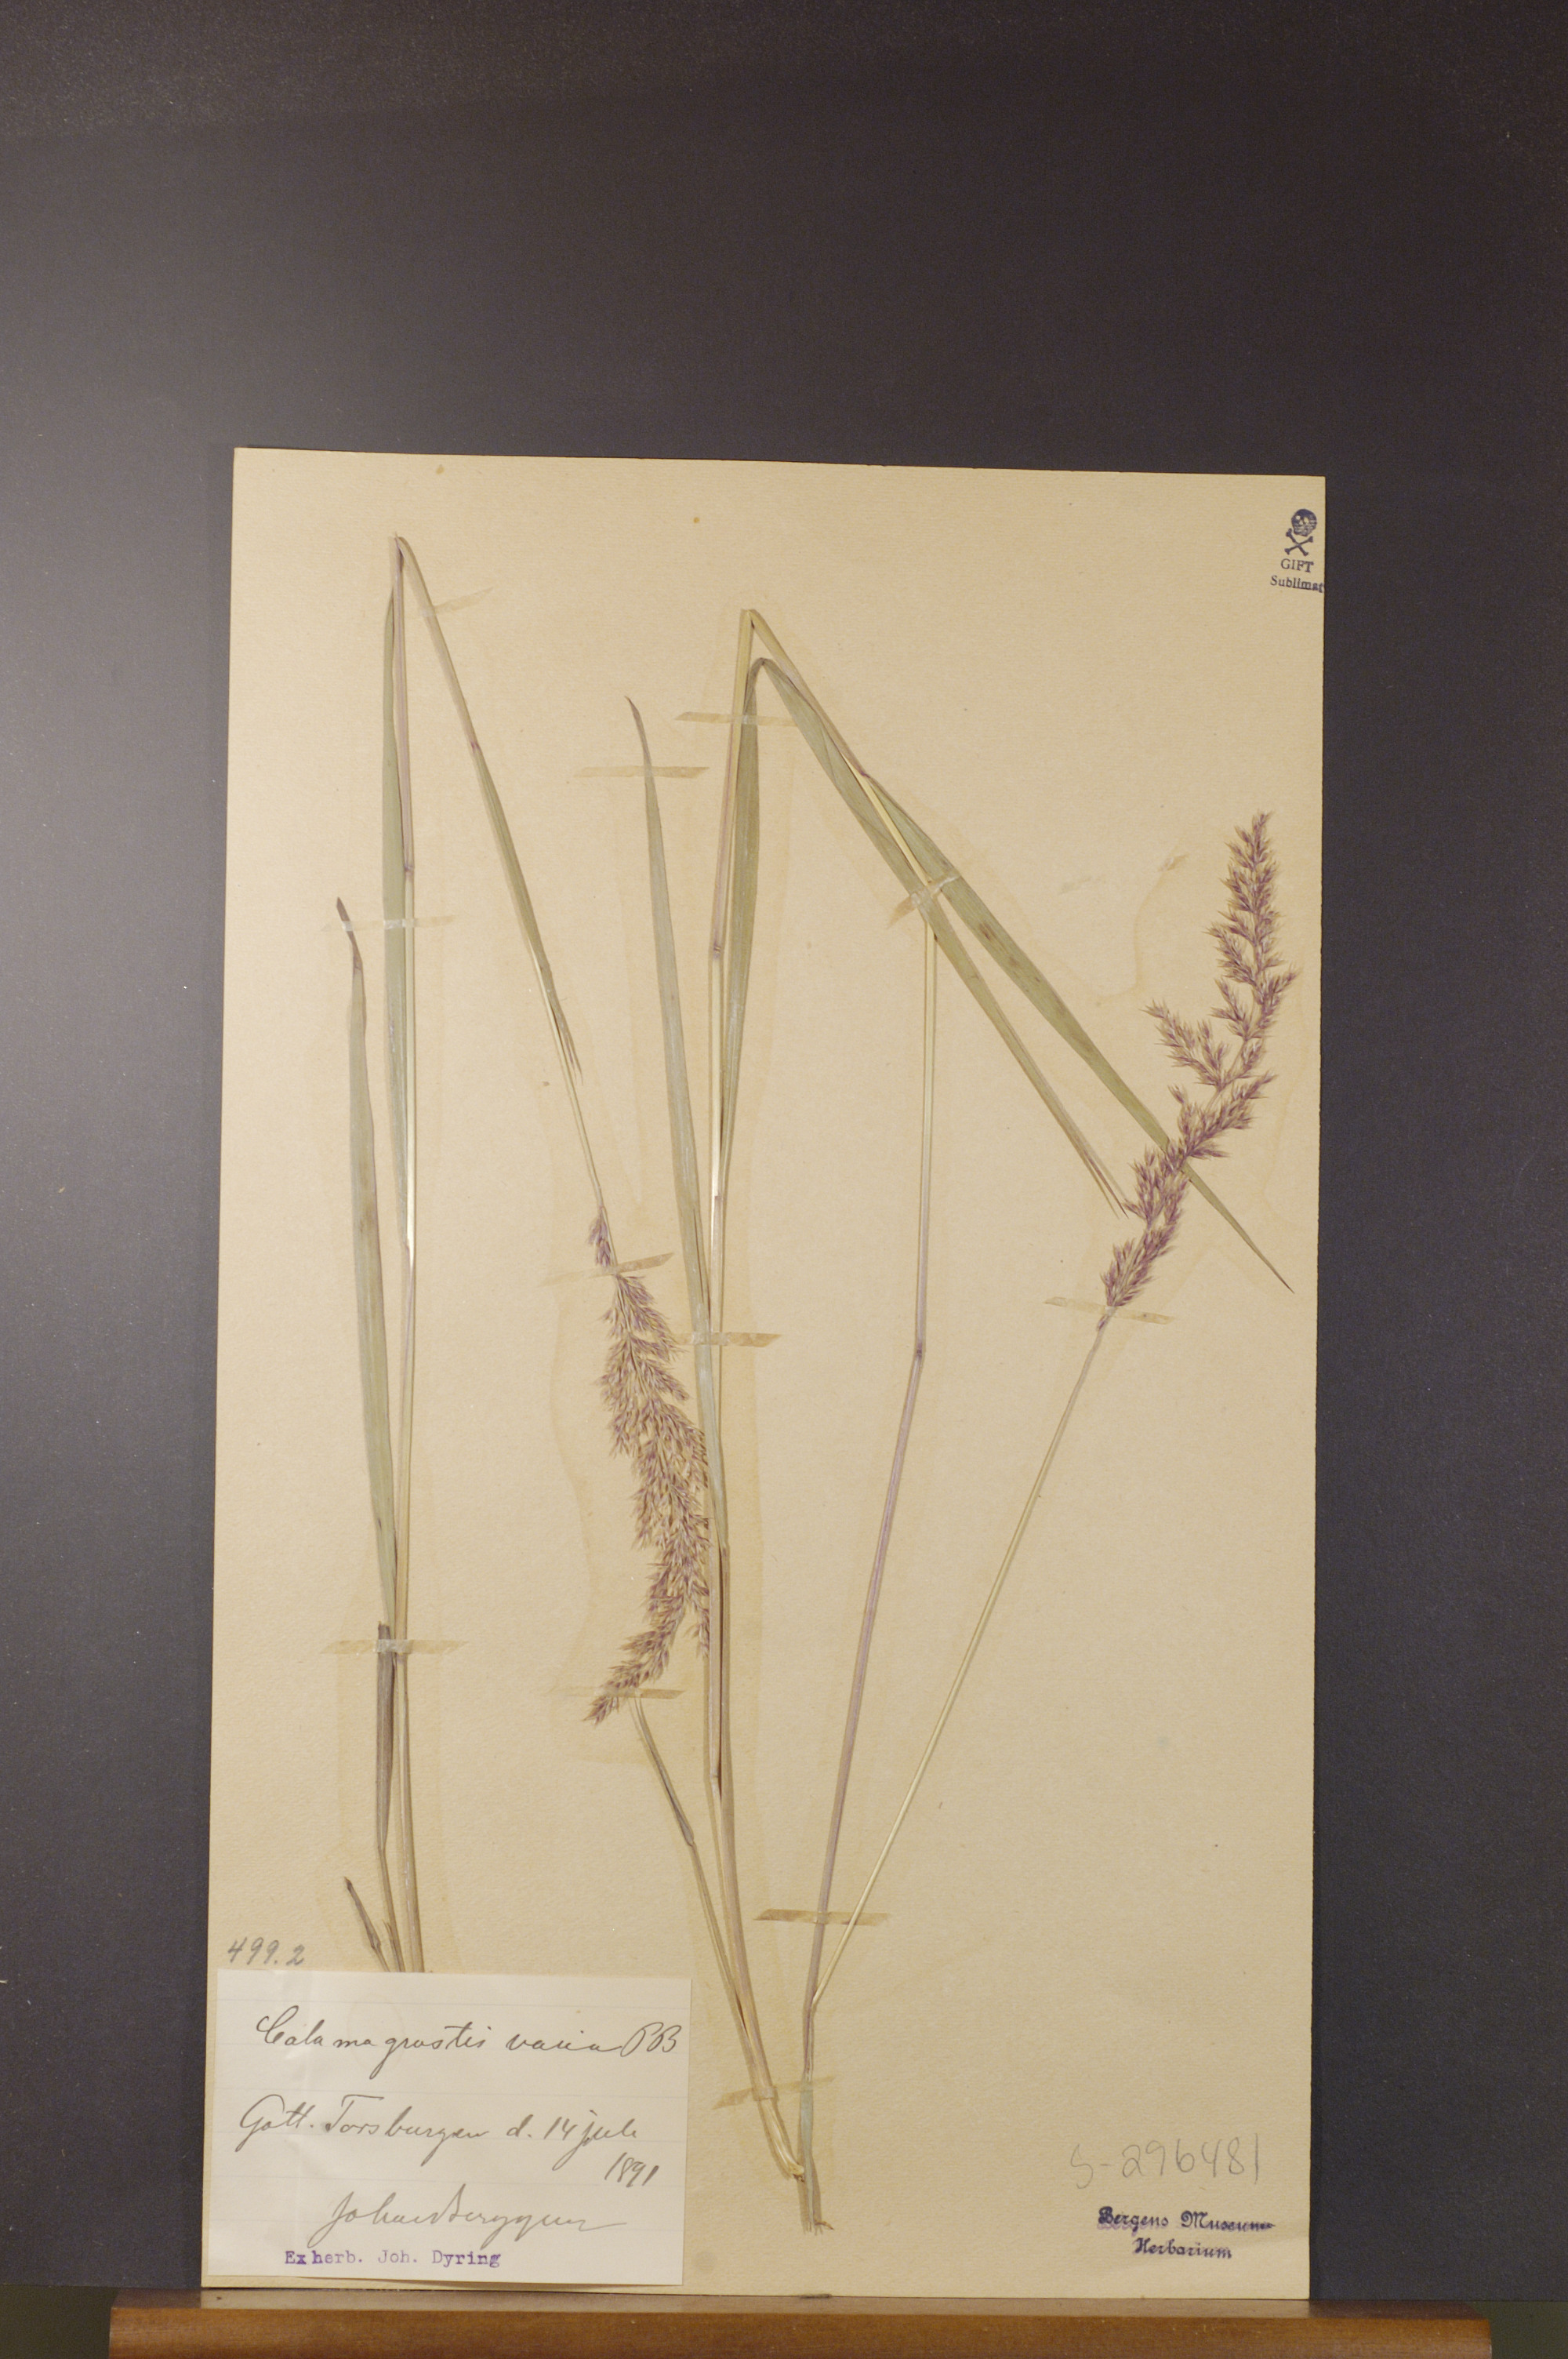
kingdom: Plantae
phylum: Tracheophyta
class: Liliopsida
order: Poales
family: Poaceae
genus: Calamagrostis
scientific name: Calamagrostis varia
